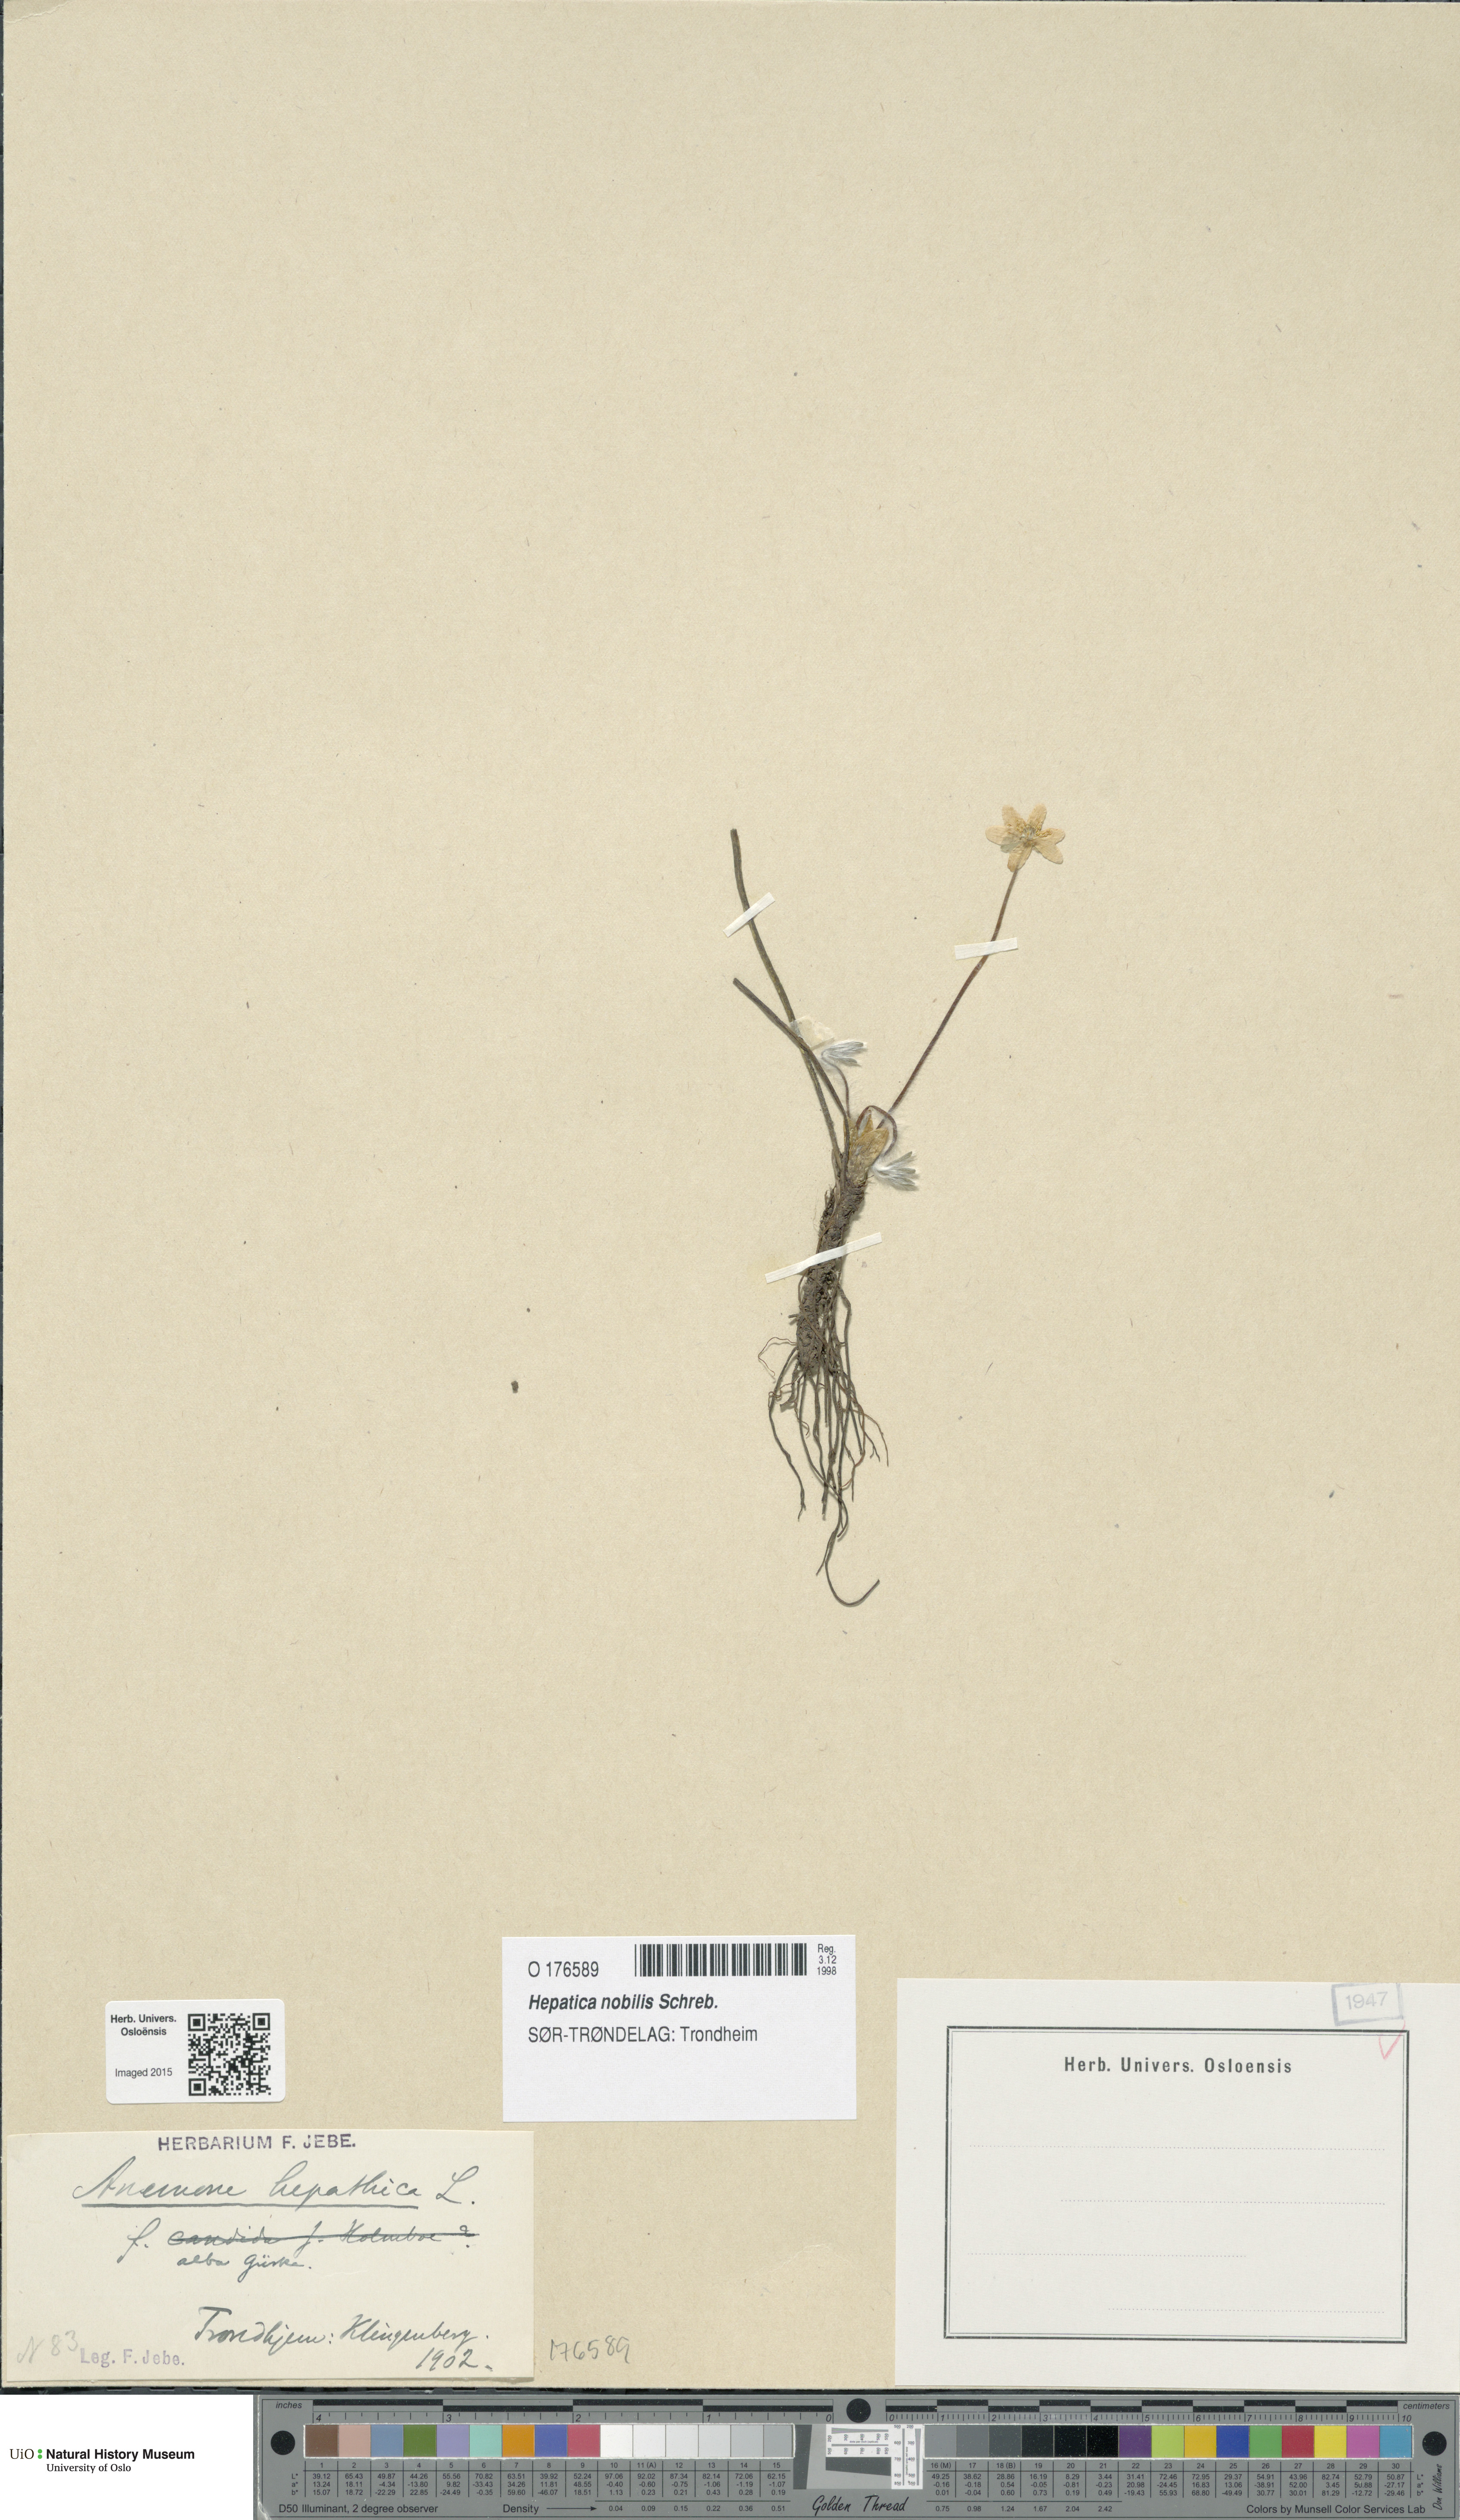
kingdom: Plantae
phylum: Tracheophyta
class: Magnoliopsida
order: Ranunculales
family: Ranunculaceae
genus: Hepatica
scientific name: Hepatica nobilis
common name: Liverleaf
